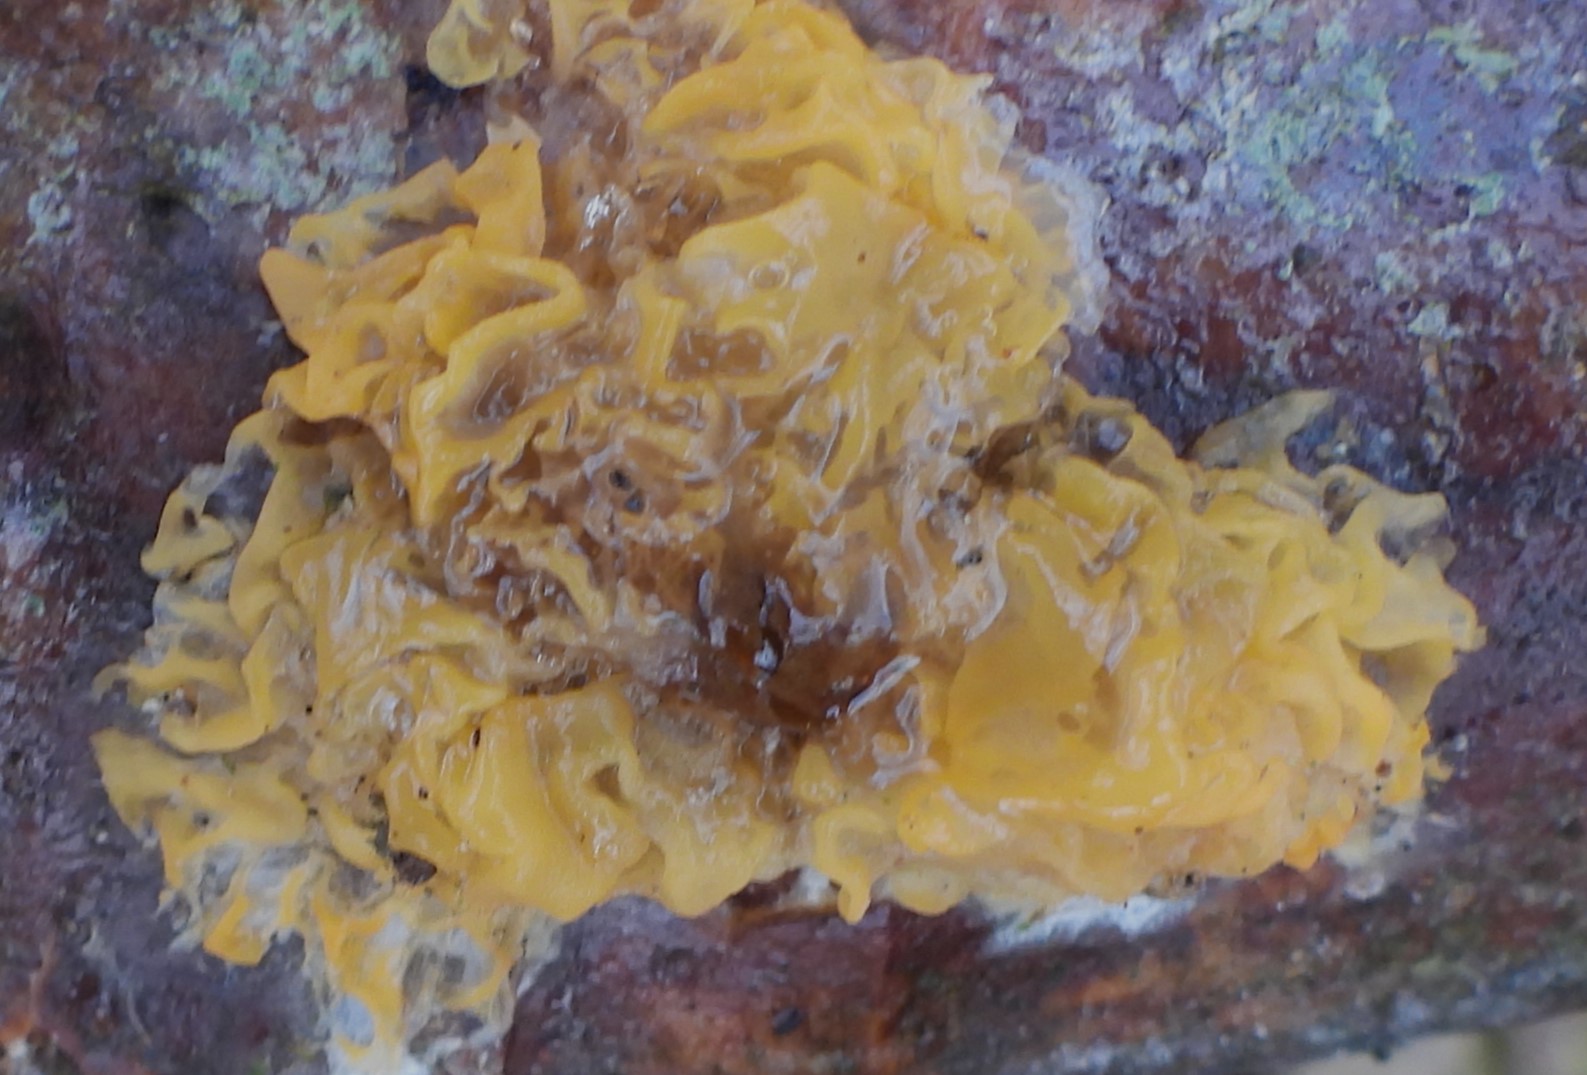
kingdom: Fungi
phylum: Basidiomycota
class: Tremellomycetes
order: Tremellales
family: Tremellaceae
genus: Tremella
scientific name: Tremella mesenterica
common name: gul bævresvamp
